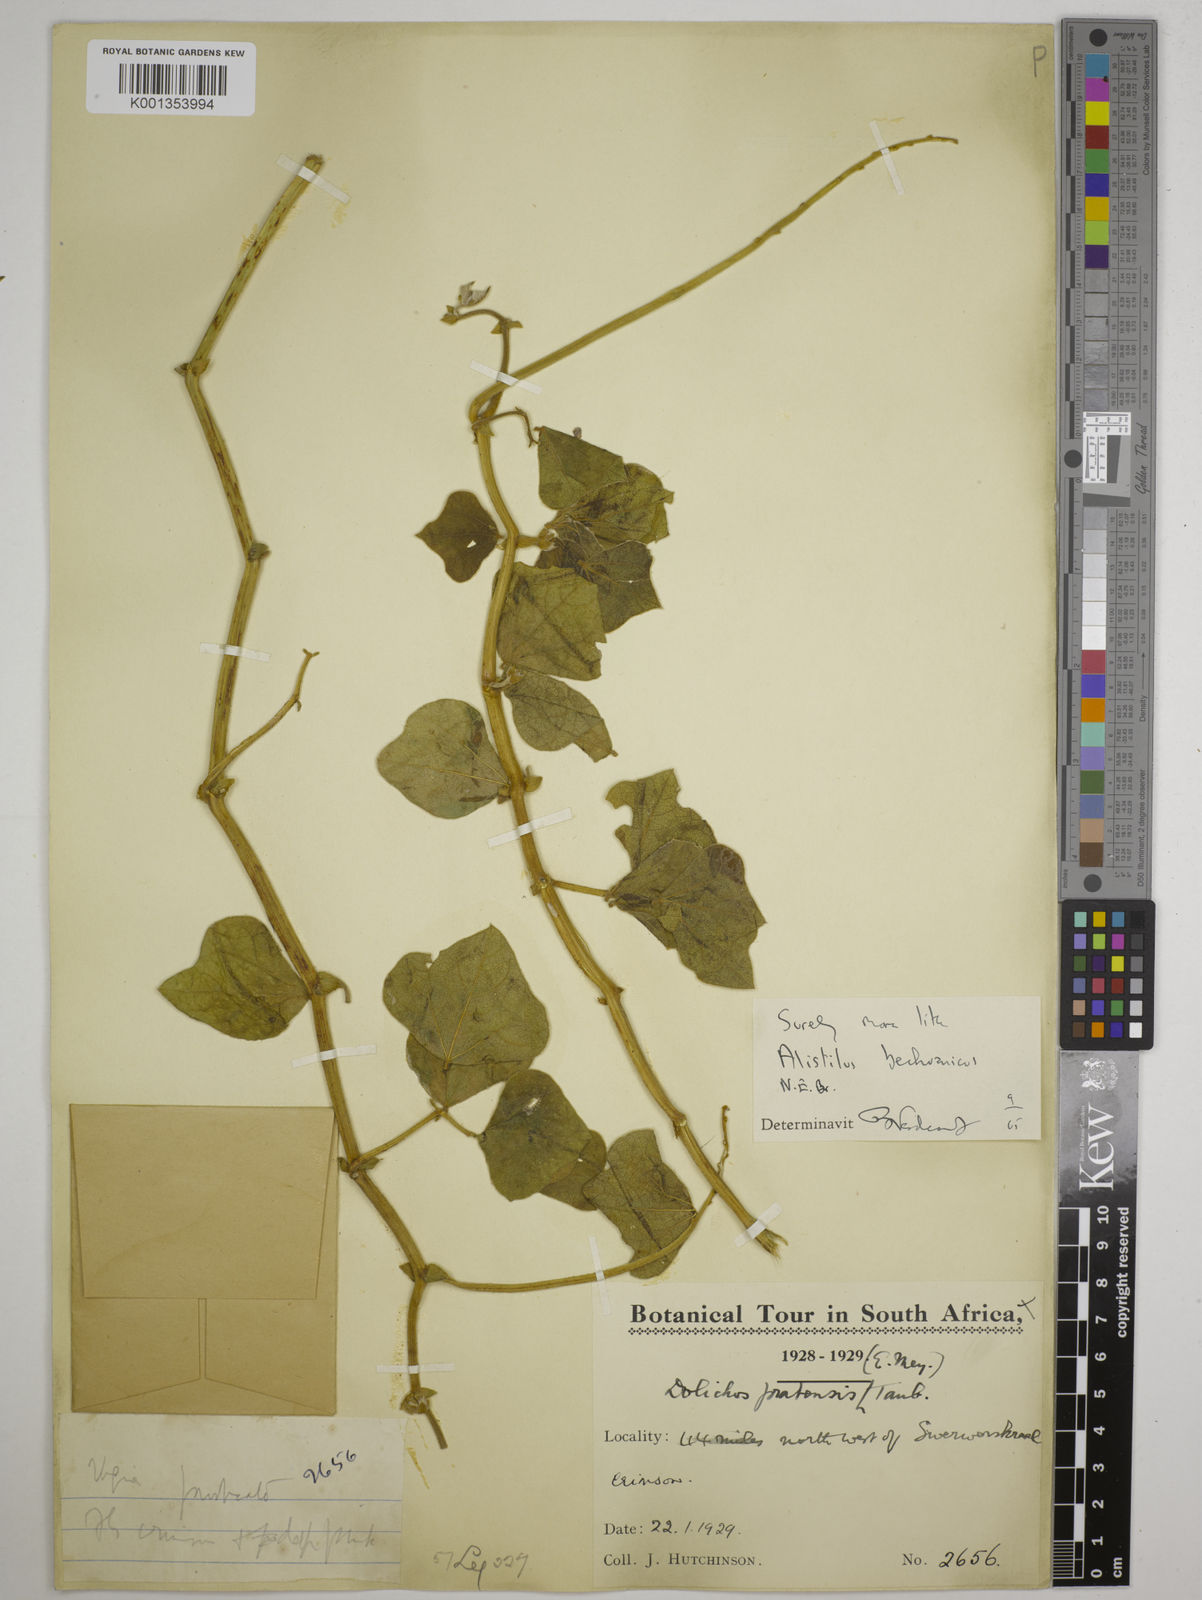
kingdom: Plantae
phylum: Tracheophyta
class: Magnoliopsida
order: Fabales
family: Fabaceae
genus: Alistilus
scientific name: Alistilus bechuanicus
